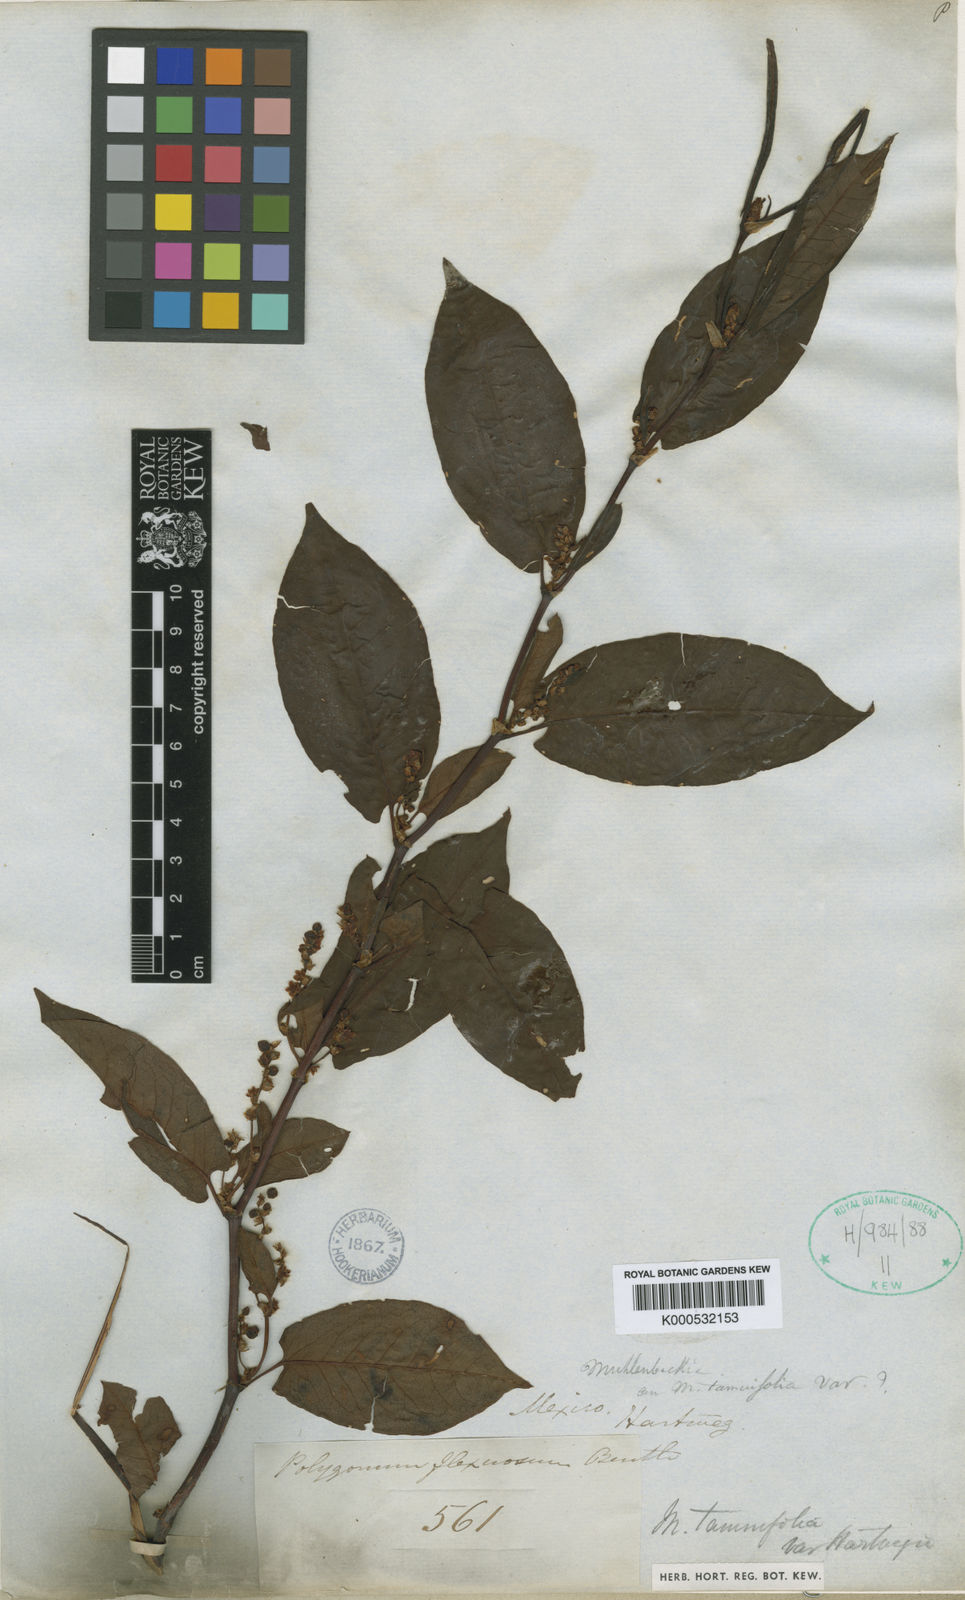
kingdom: Plantae
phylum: Tracheophyta
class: Magnoliopsida
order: Caryophyllales
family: Polygonaceae
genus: Muehlenbeckia
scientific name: Muehlenbeckia tamnifolia
